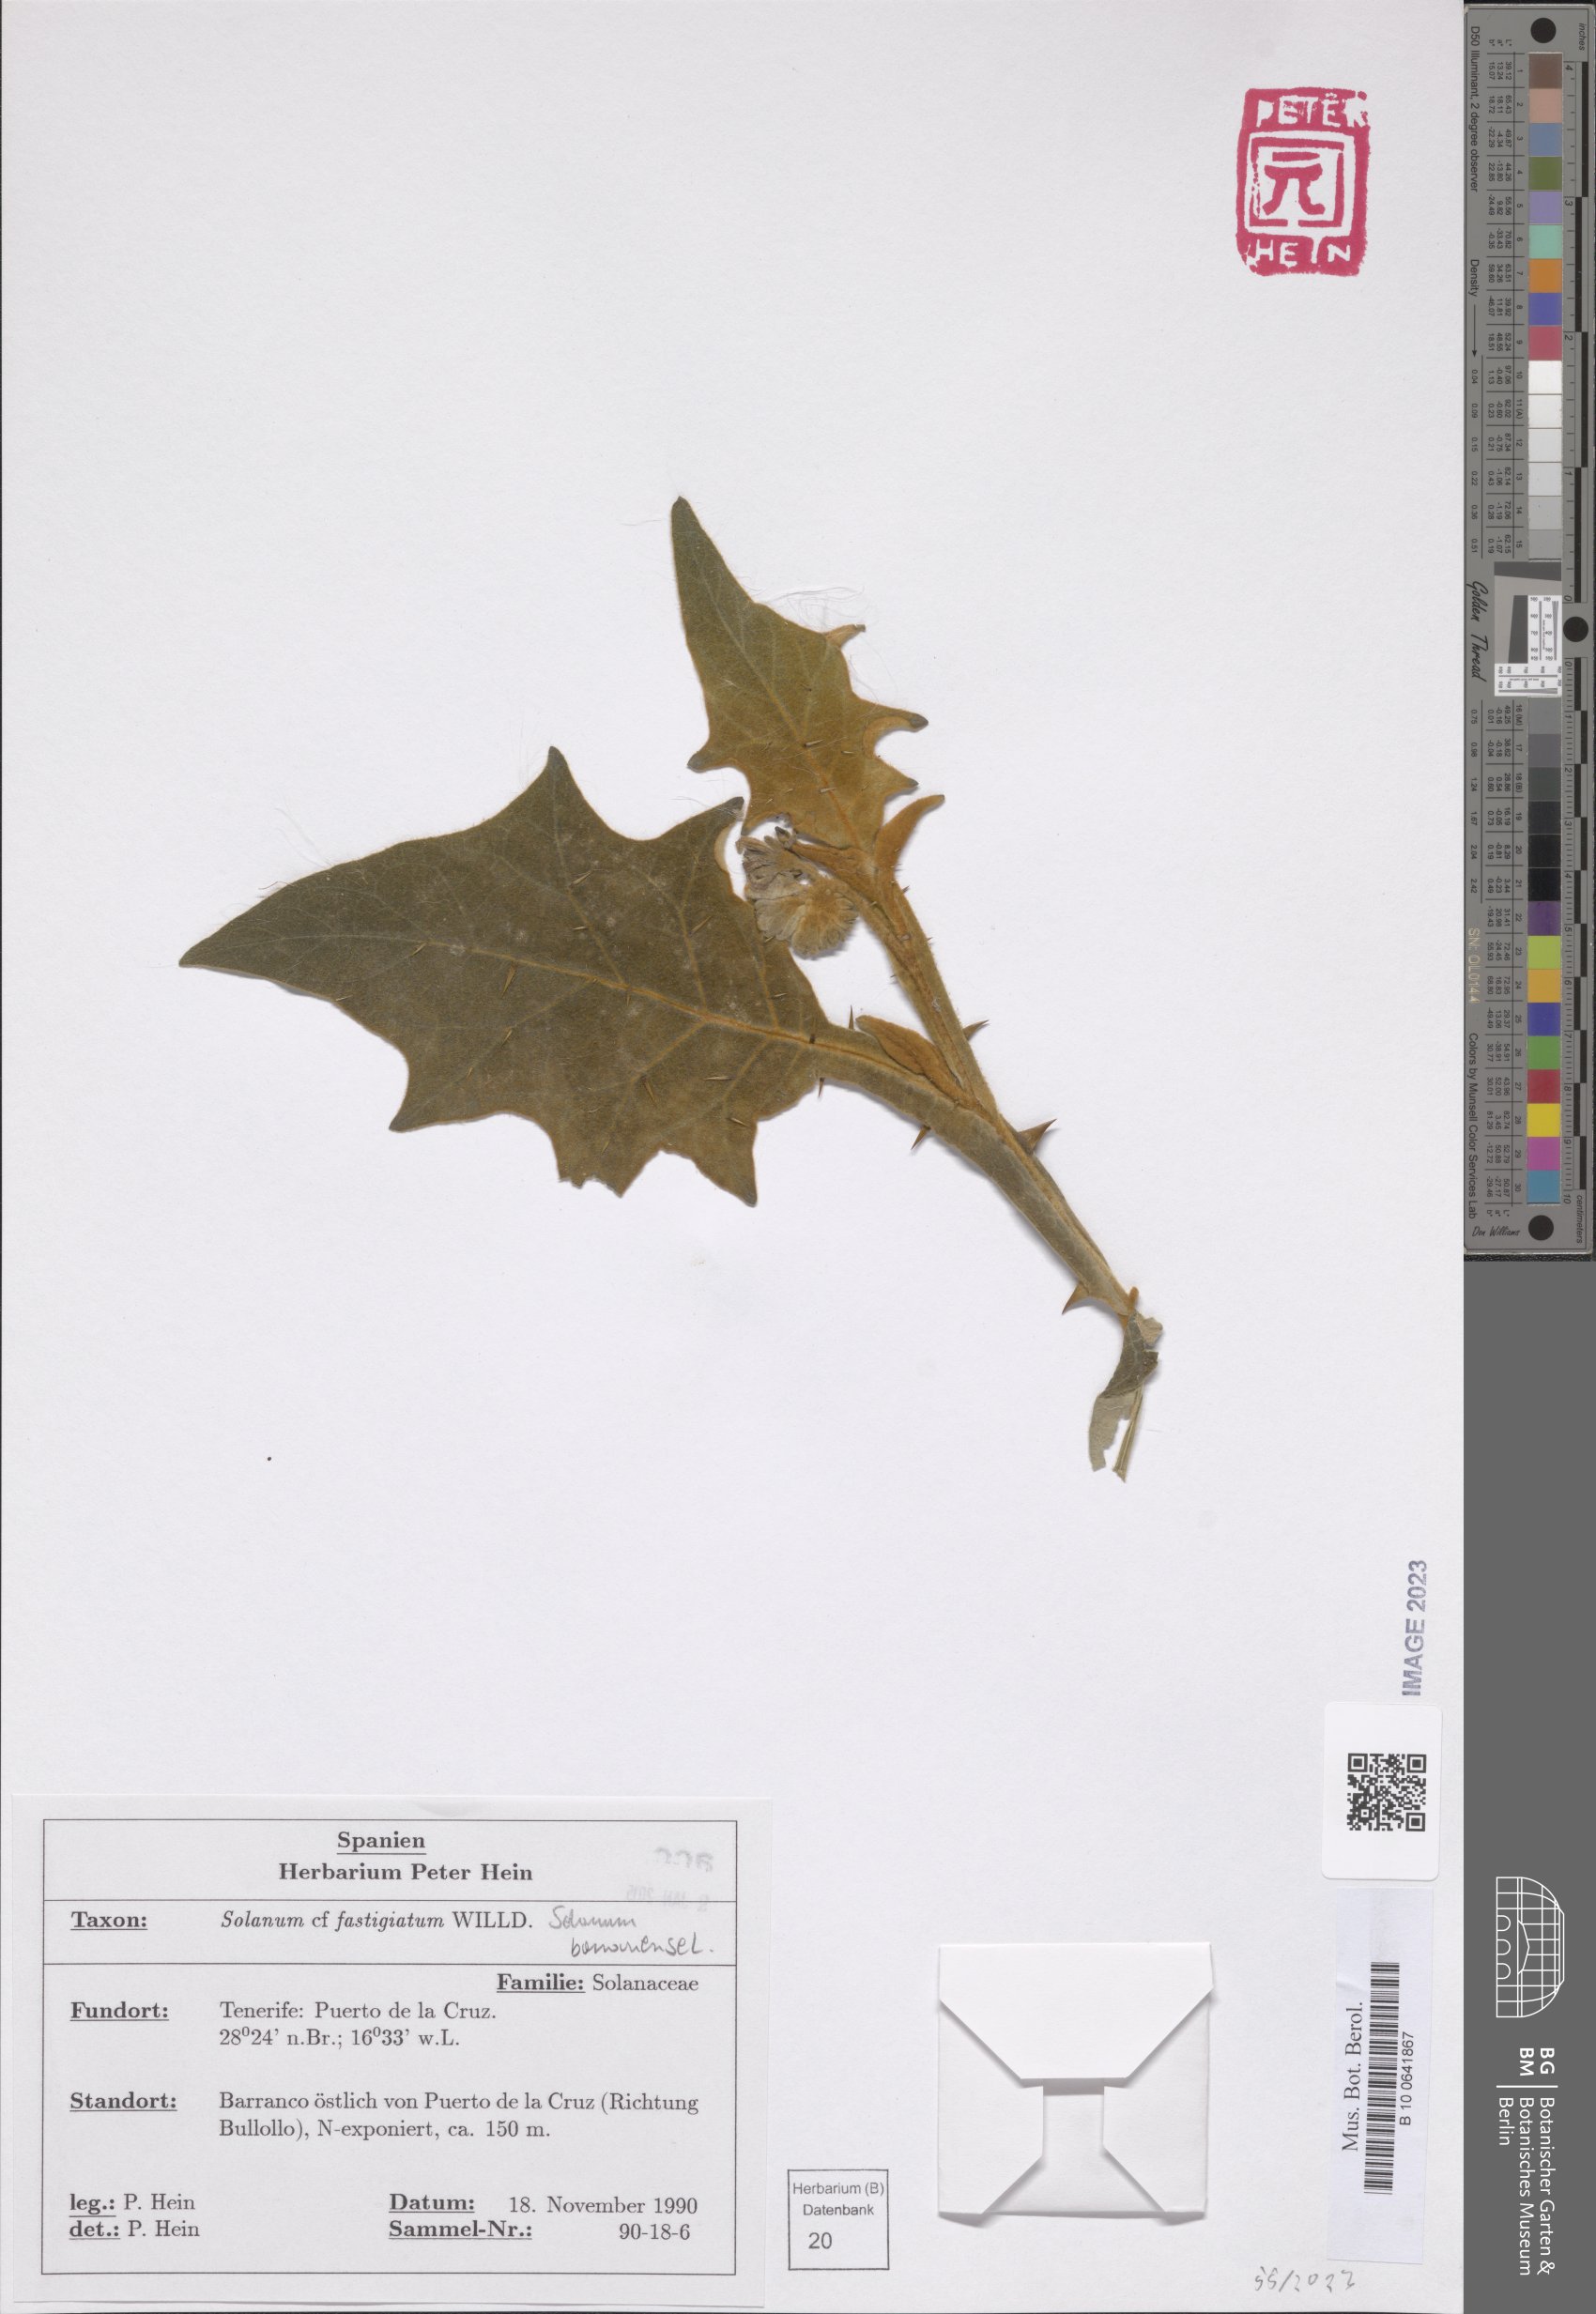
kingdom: Plantae
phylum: Tracheophyta
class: Magnoliopsida
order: Solanales
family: Solanaceae
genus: Solanum
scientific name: Solanum bonariense
